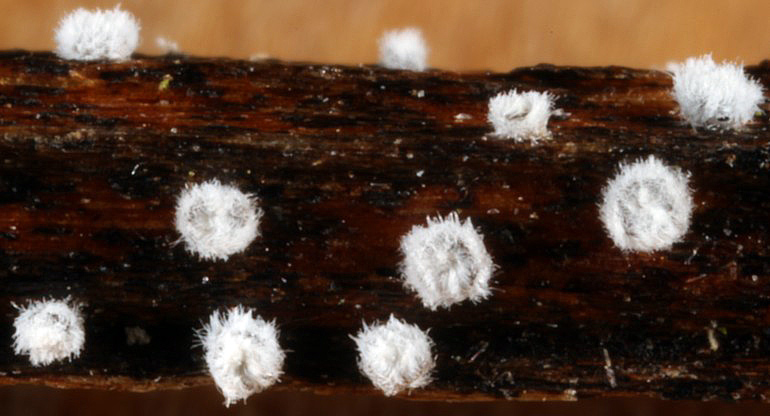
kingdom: Fungi
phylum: Basidiomycota
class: Agaricomycetes
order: Agaricales
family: Niaceae
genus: Lachnella
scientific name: Lachnella alboviolascens
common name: grå frynserede
